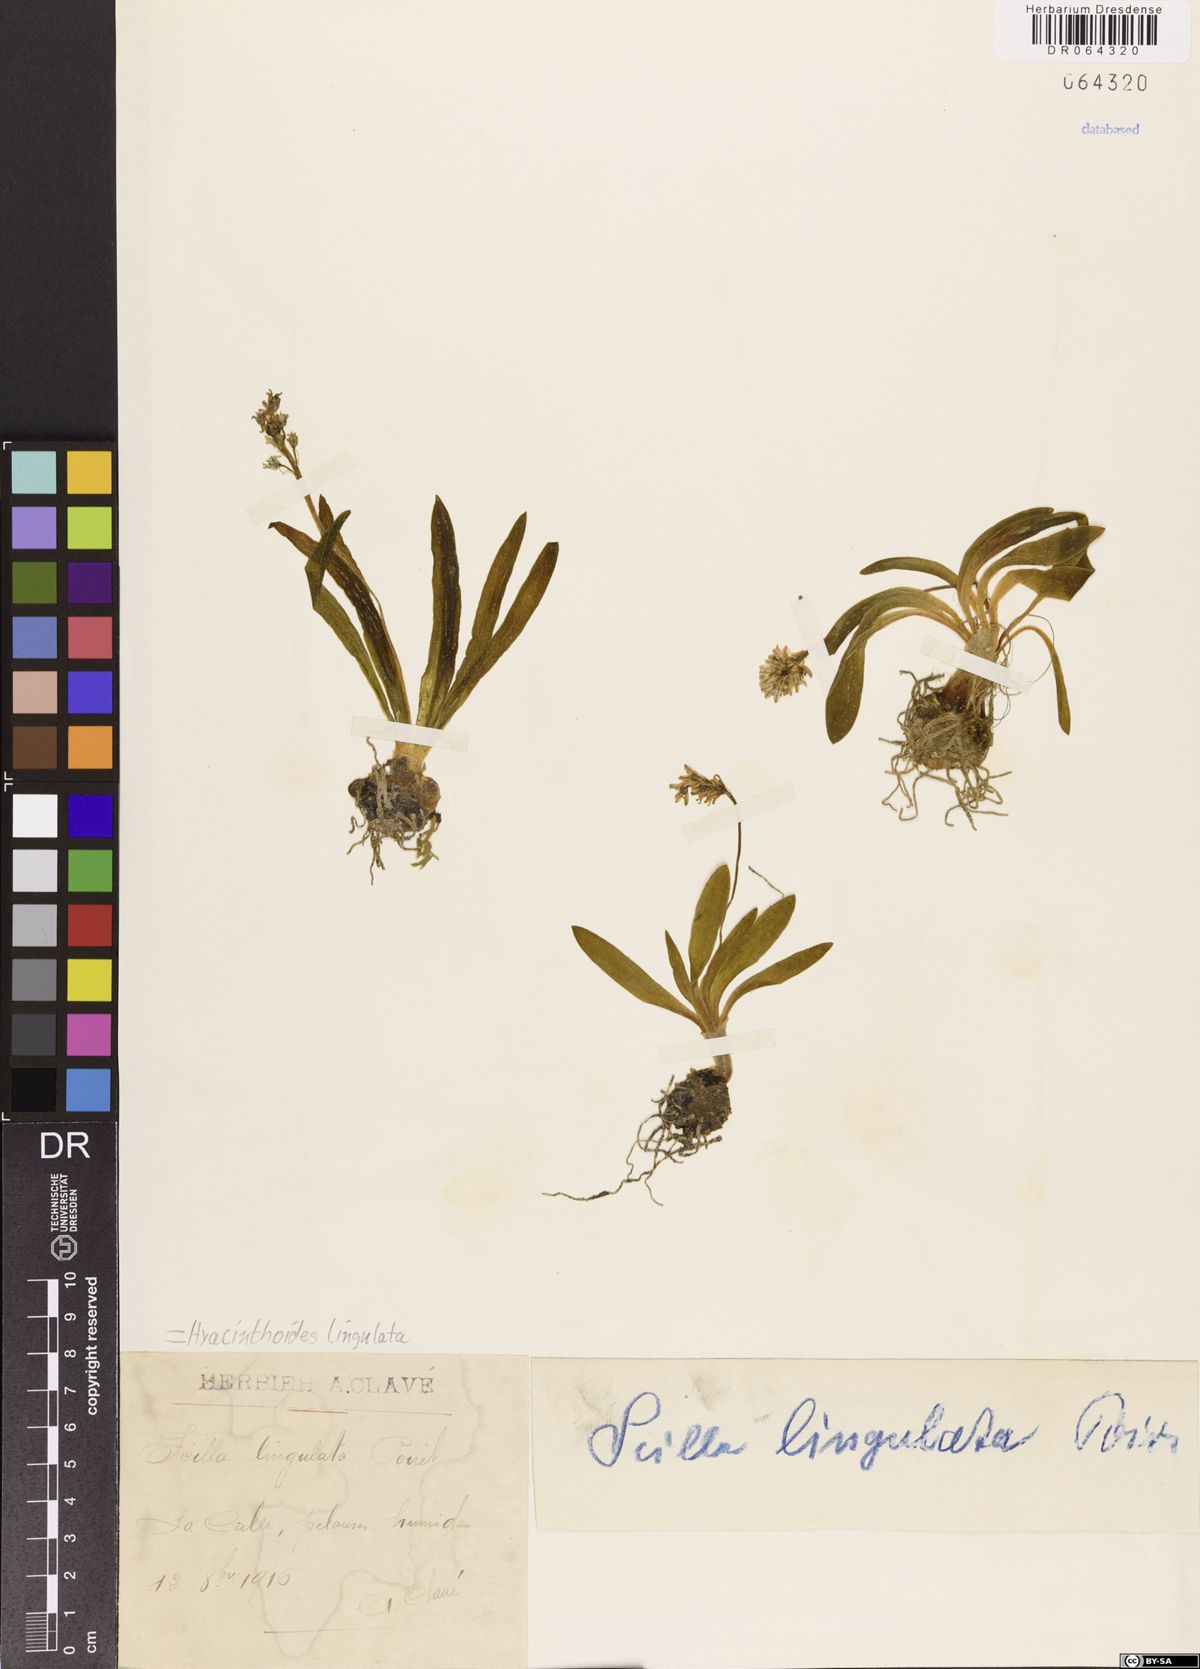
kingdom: Plantae
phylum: Tracheophyta
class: Liliopsida
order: Asparagales
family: Asparagaceae
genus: Hyacinthoides
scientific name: Hyacinthoides lingulata
